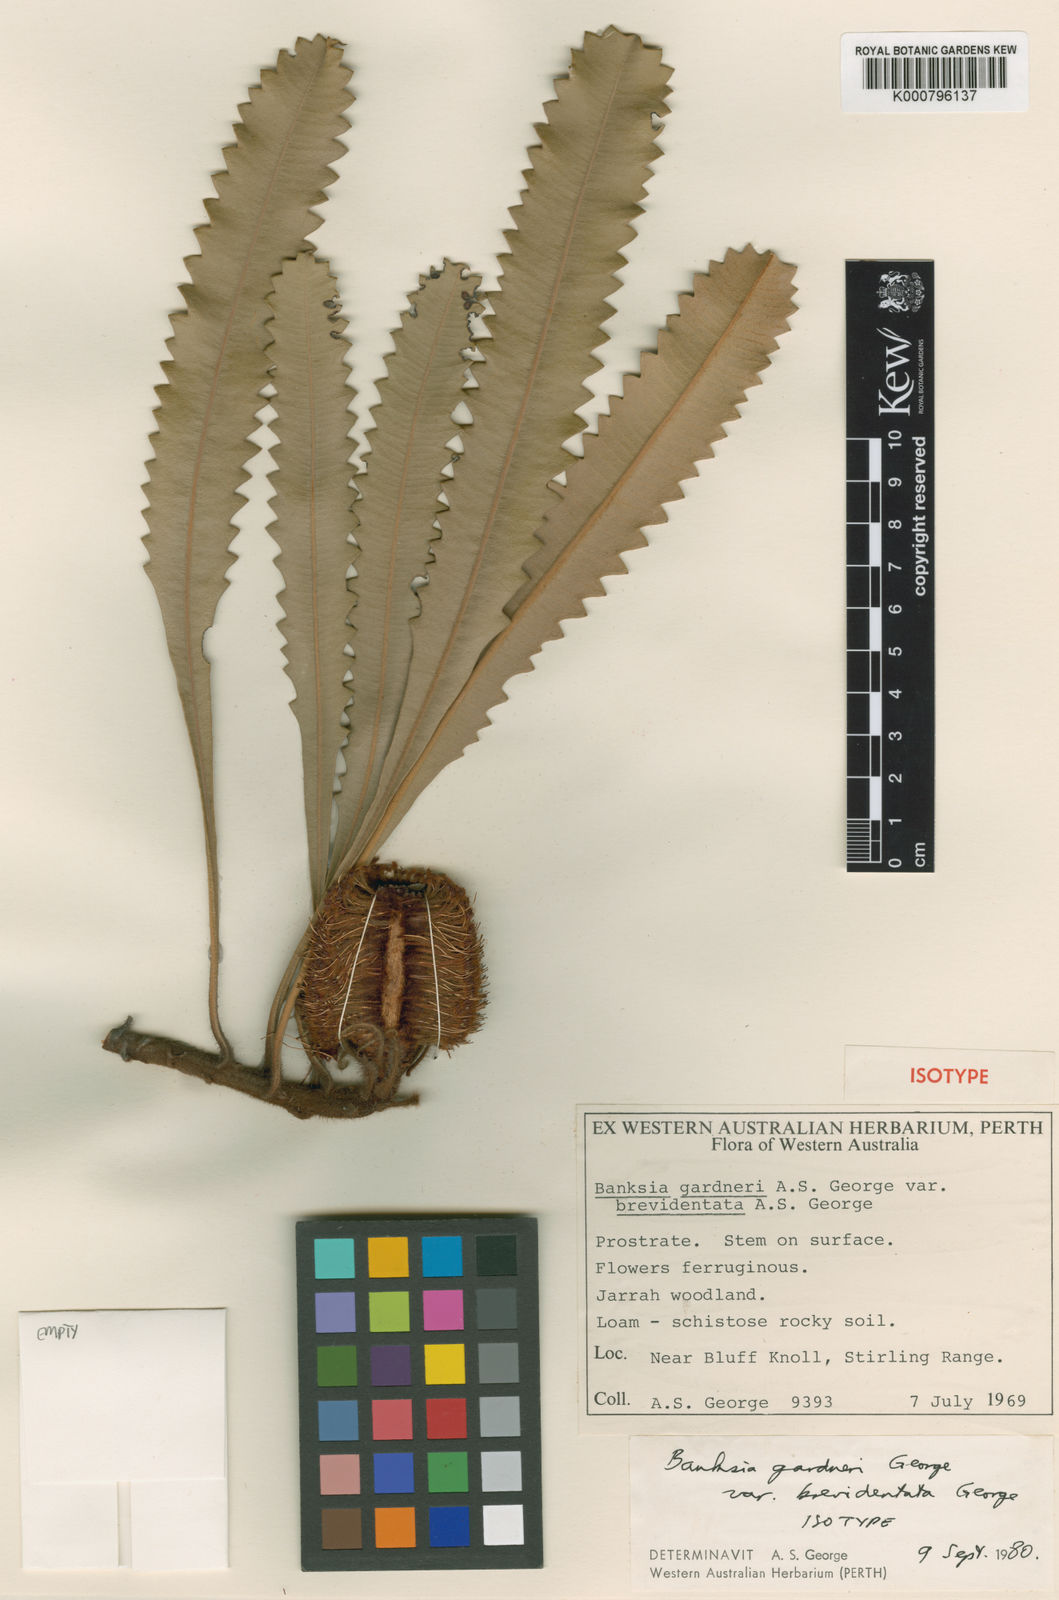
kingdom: Plantae
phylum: Tracheophyta
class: Magnoliopsida
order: Proteales
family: Proteaceae
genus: Banksia
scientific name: Banksia brevidentata
